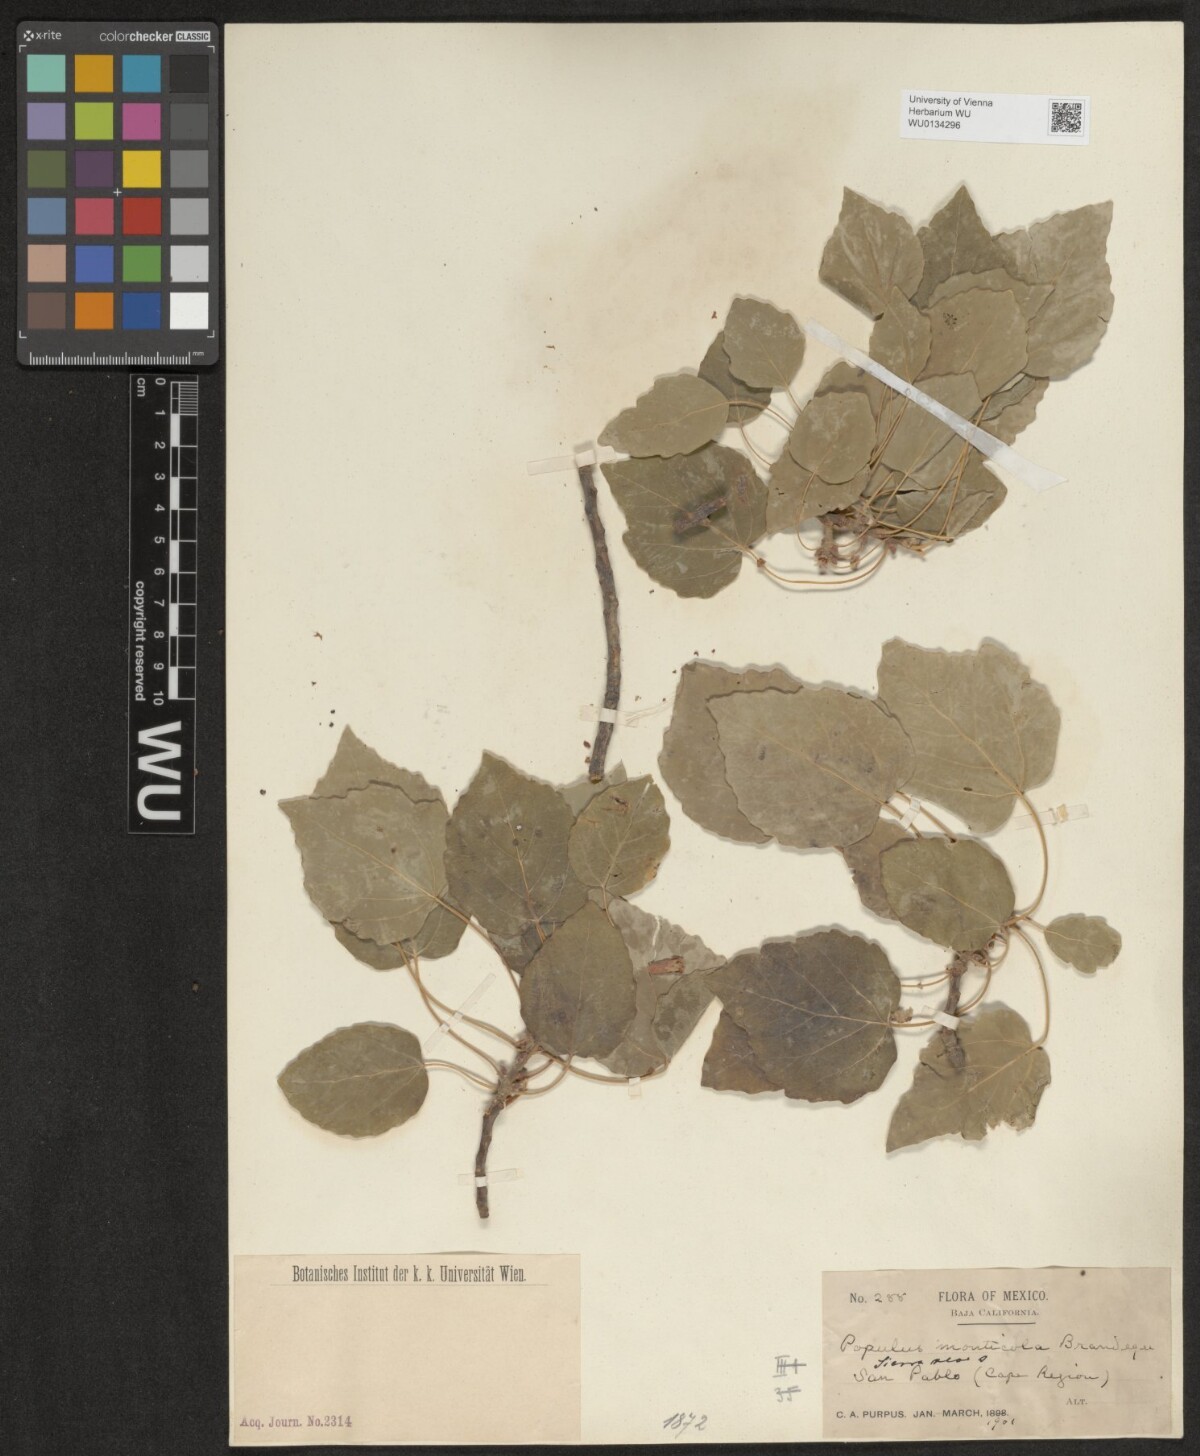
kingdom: Plantae
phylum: Tracheophyta
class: Magnoliopsida
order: Malpighiales
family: Salicaceae
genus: Populus
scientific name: Populus tremula
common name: European aspen
